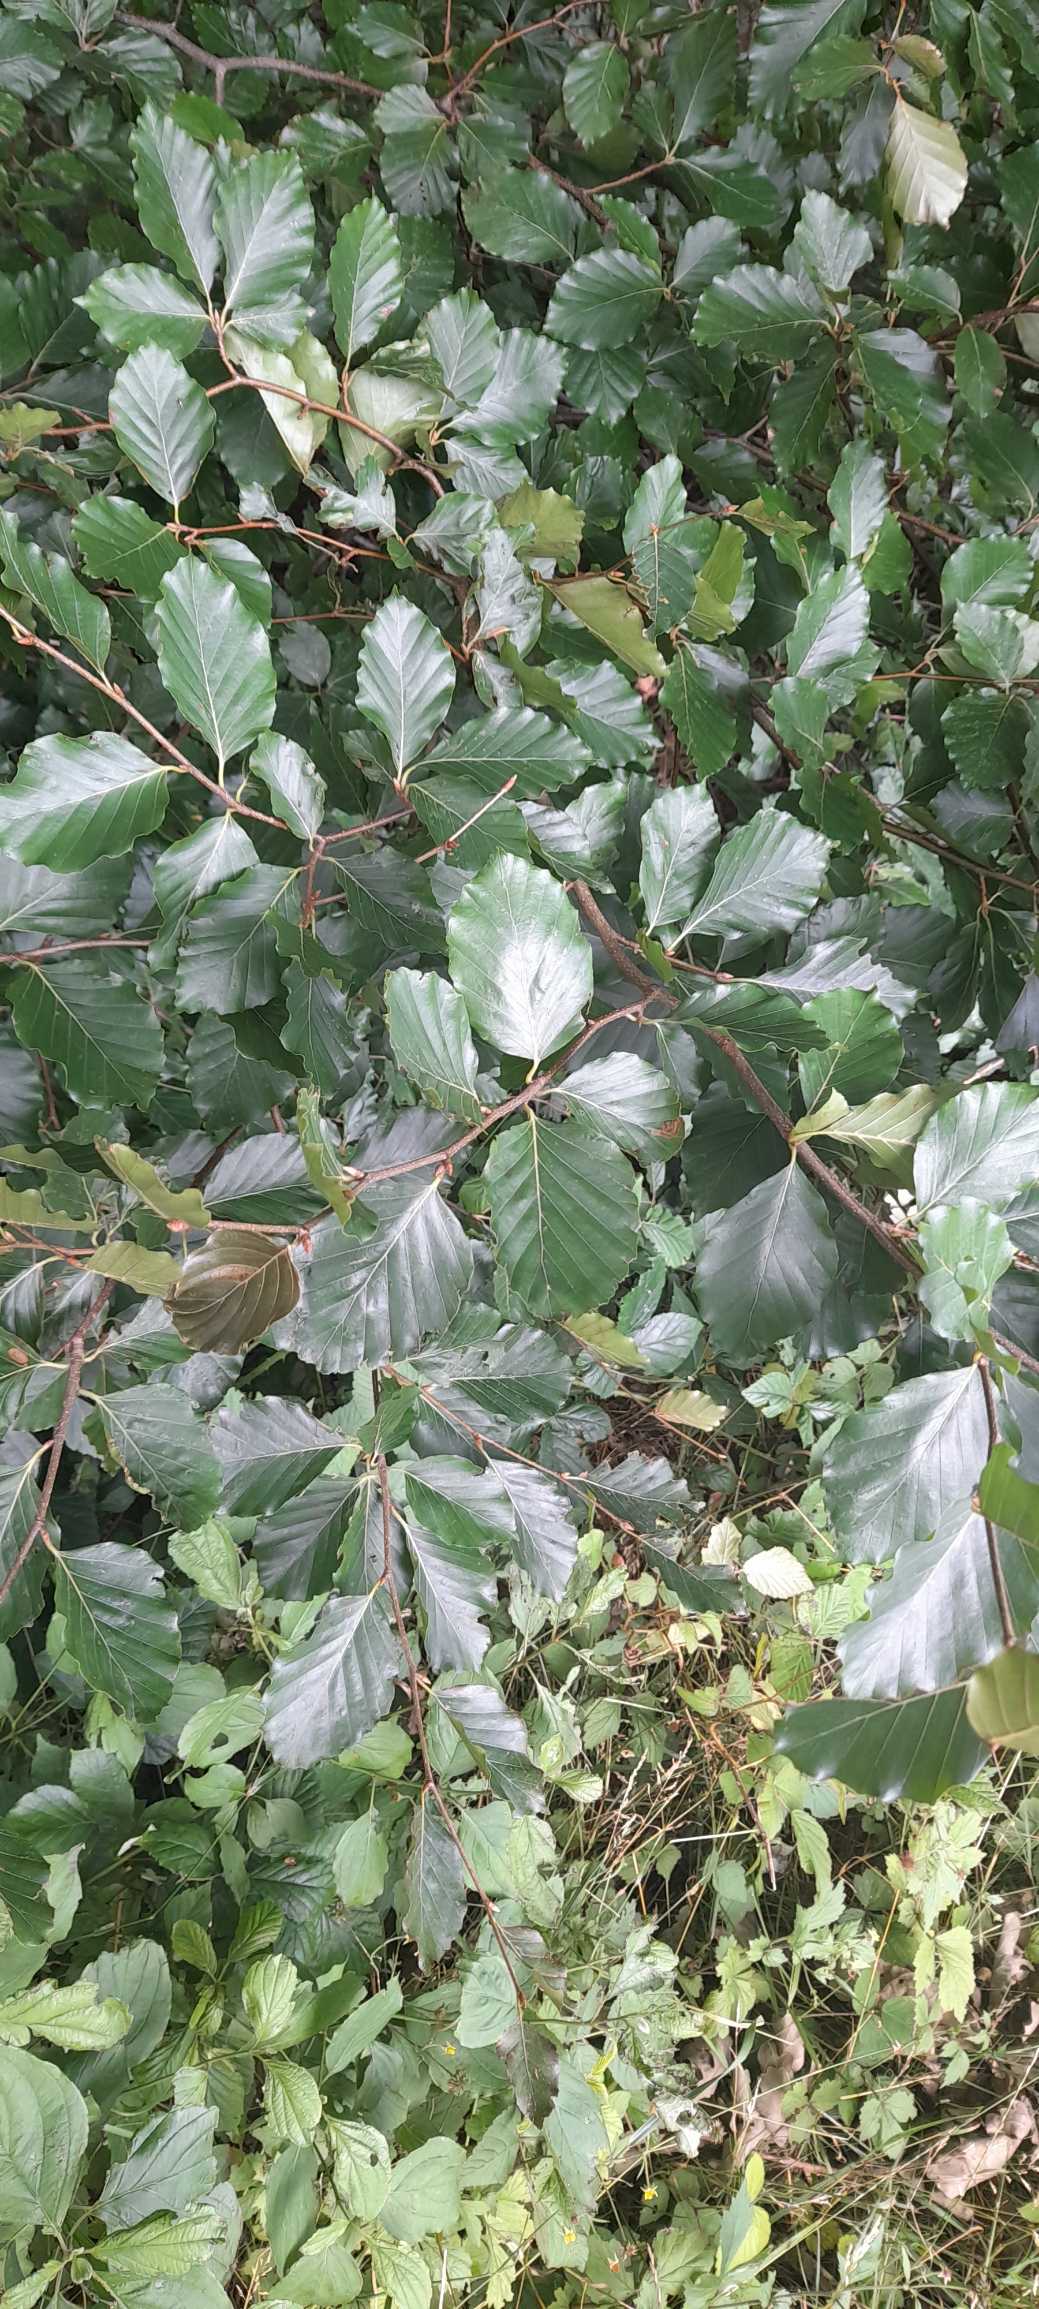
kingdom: Plantae
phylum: Tracheophyta
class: Magnoliopsida
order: Fagales
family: Fagaceae
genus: Fagus
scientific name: Fagus sylvatica
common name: Bøg
